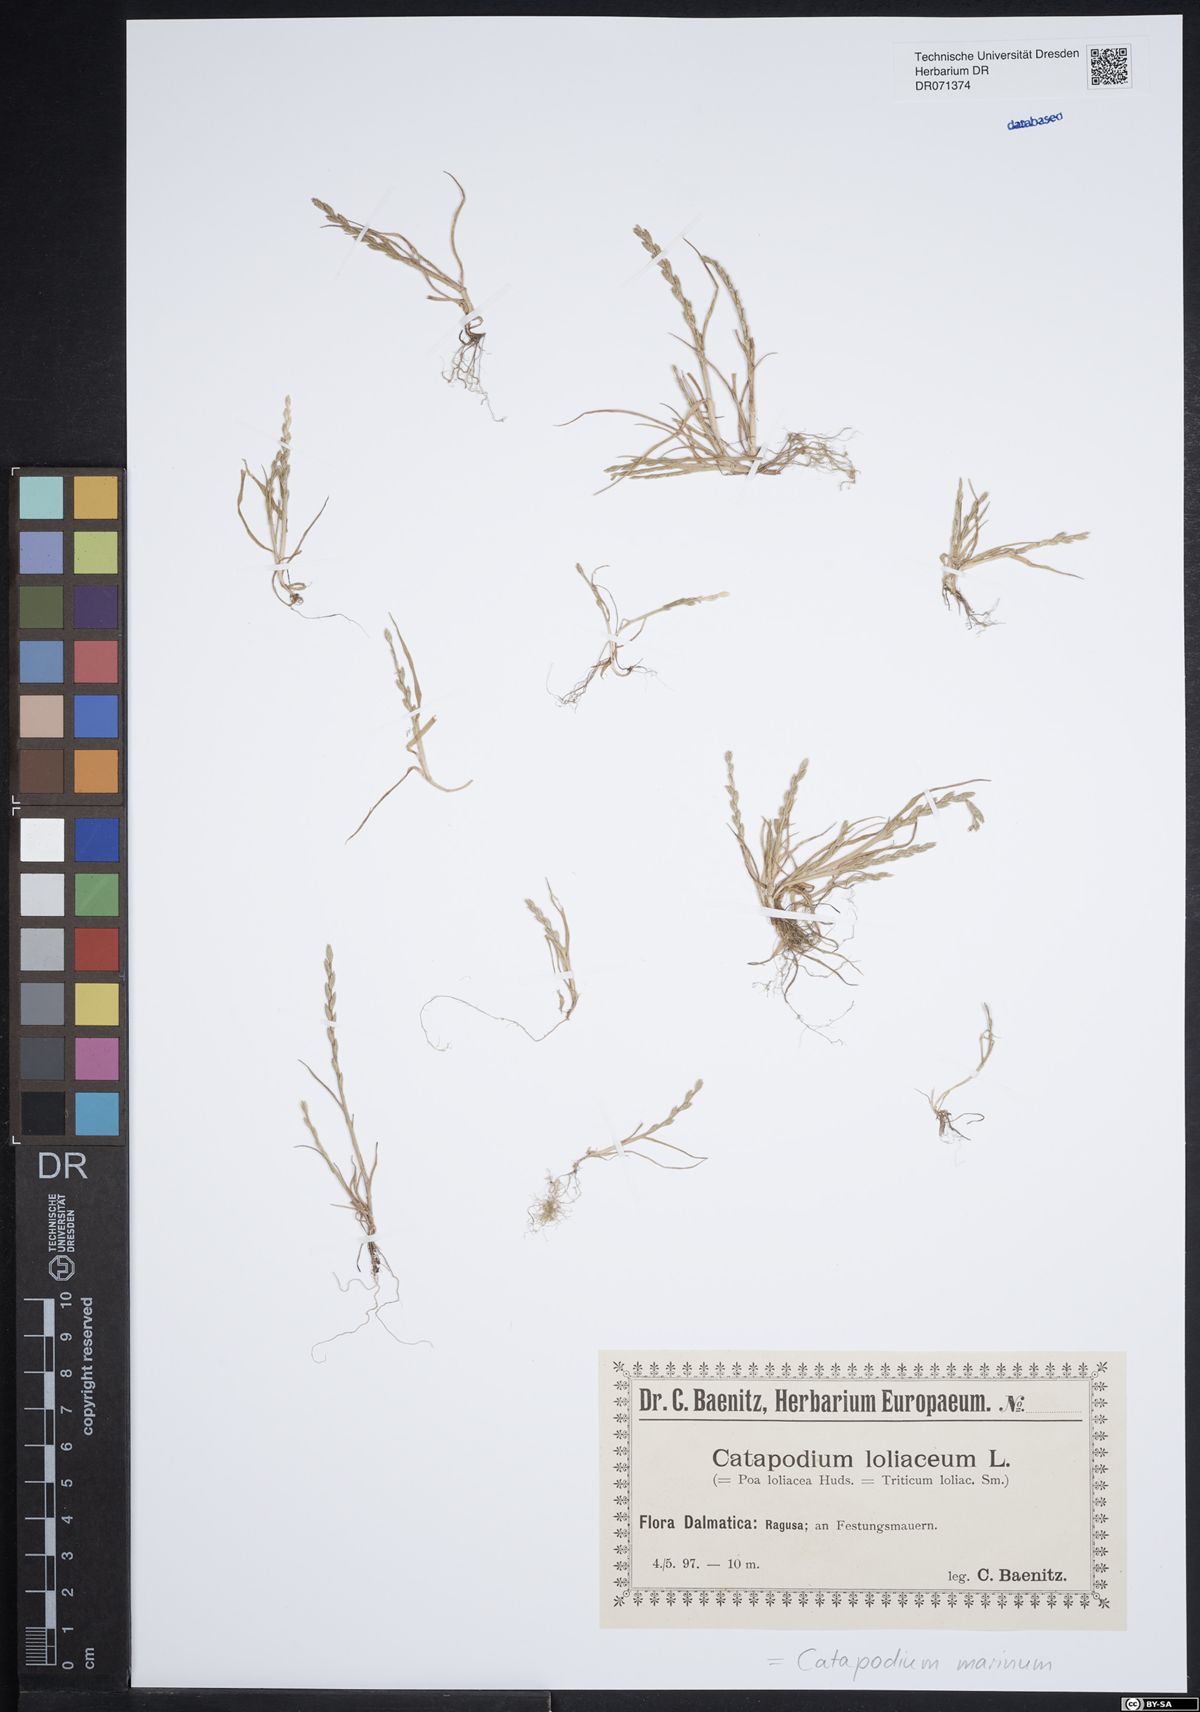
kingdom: Plantae
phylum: Tracheophyta
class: Liliopsida
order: Poales
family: Poaceae
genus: Catapodium
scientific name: Catapodium marinum
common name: Sea fern-grass
